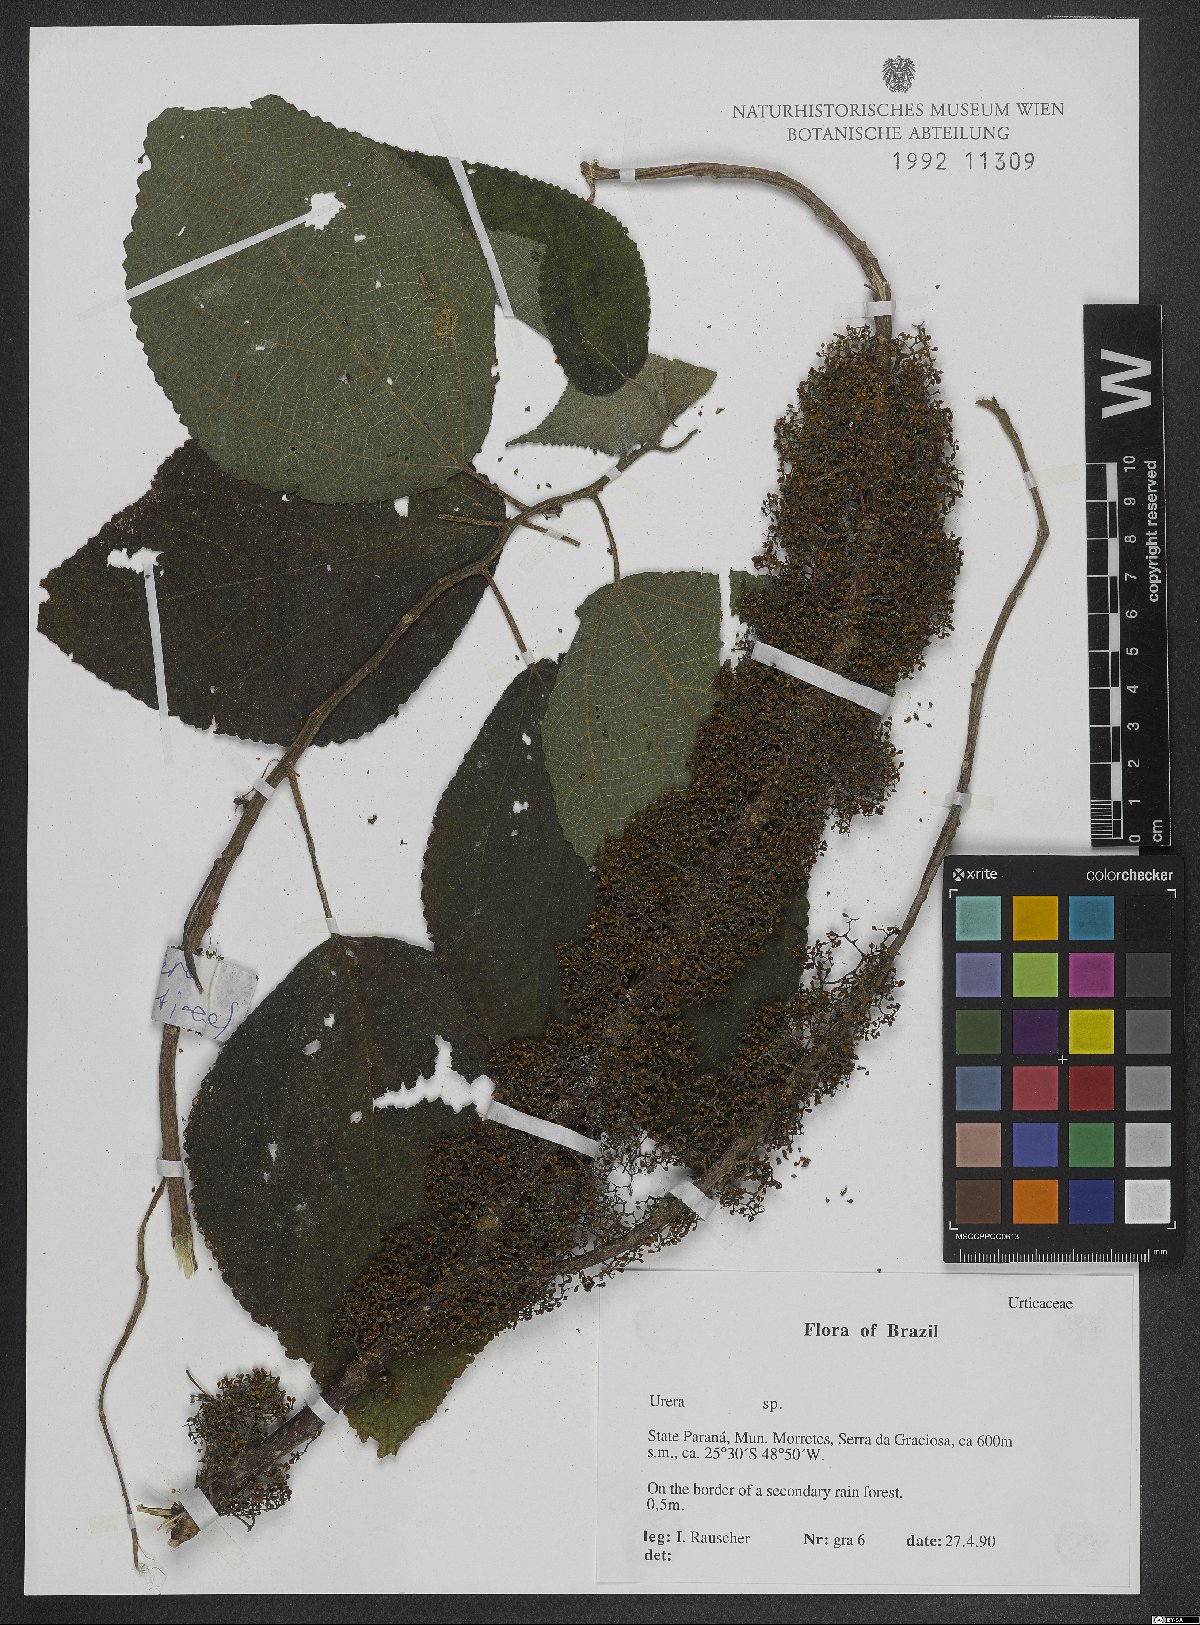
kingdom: Plantae
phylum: Tracheophyta
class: Magnoliopsida
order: Rosales
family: Urticaceae
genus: Urera
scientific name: Urera
